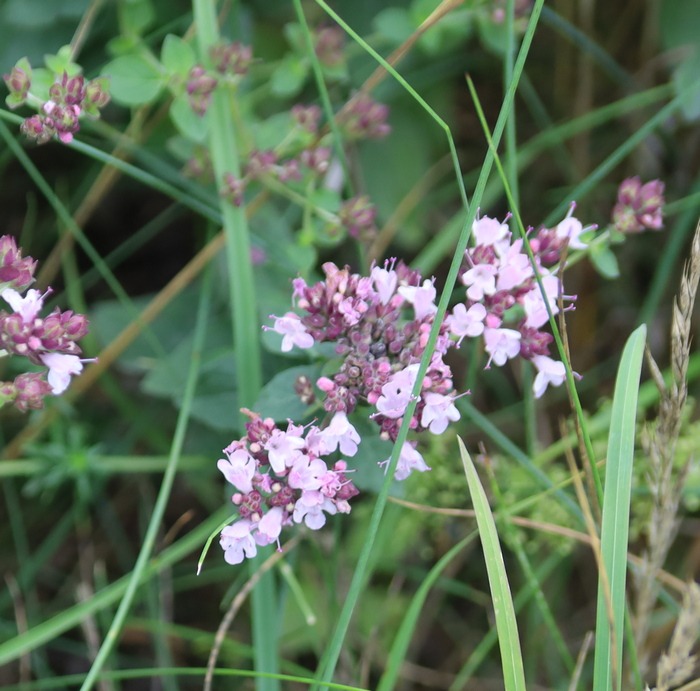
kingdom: Plantae
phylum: Tracheophyta
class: Magnoliopsida
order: Lamiales
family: Lamiaceae
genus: Origanum
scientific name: Origanum vulgare
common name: Merian
